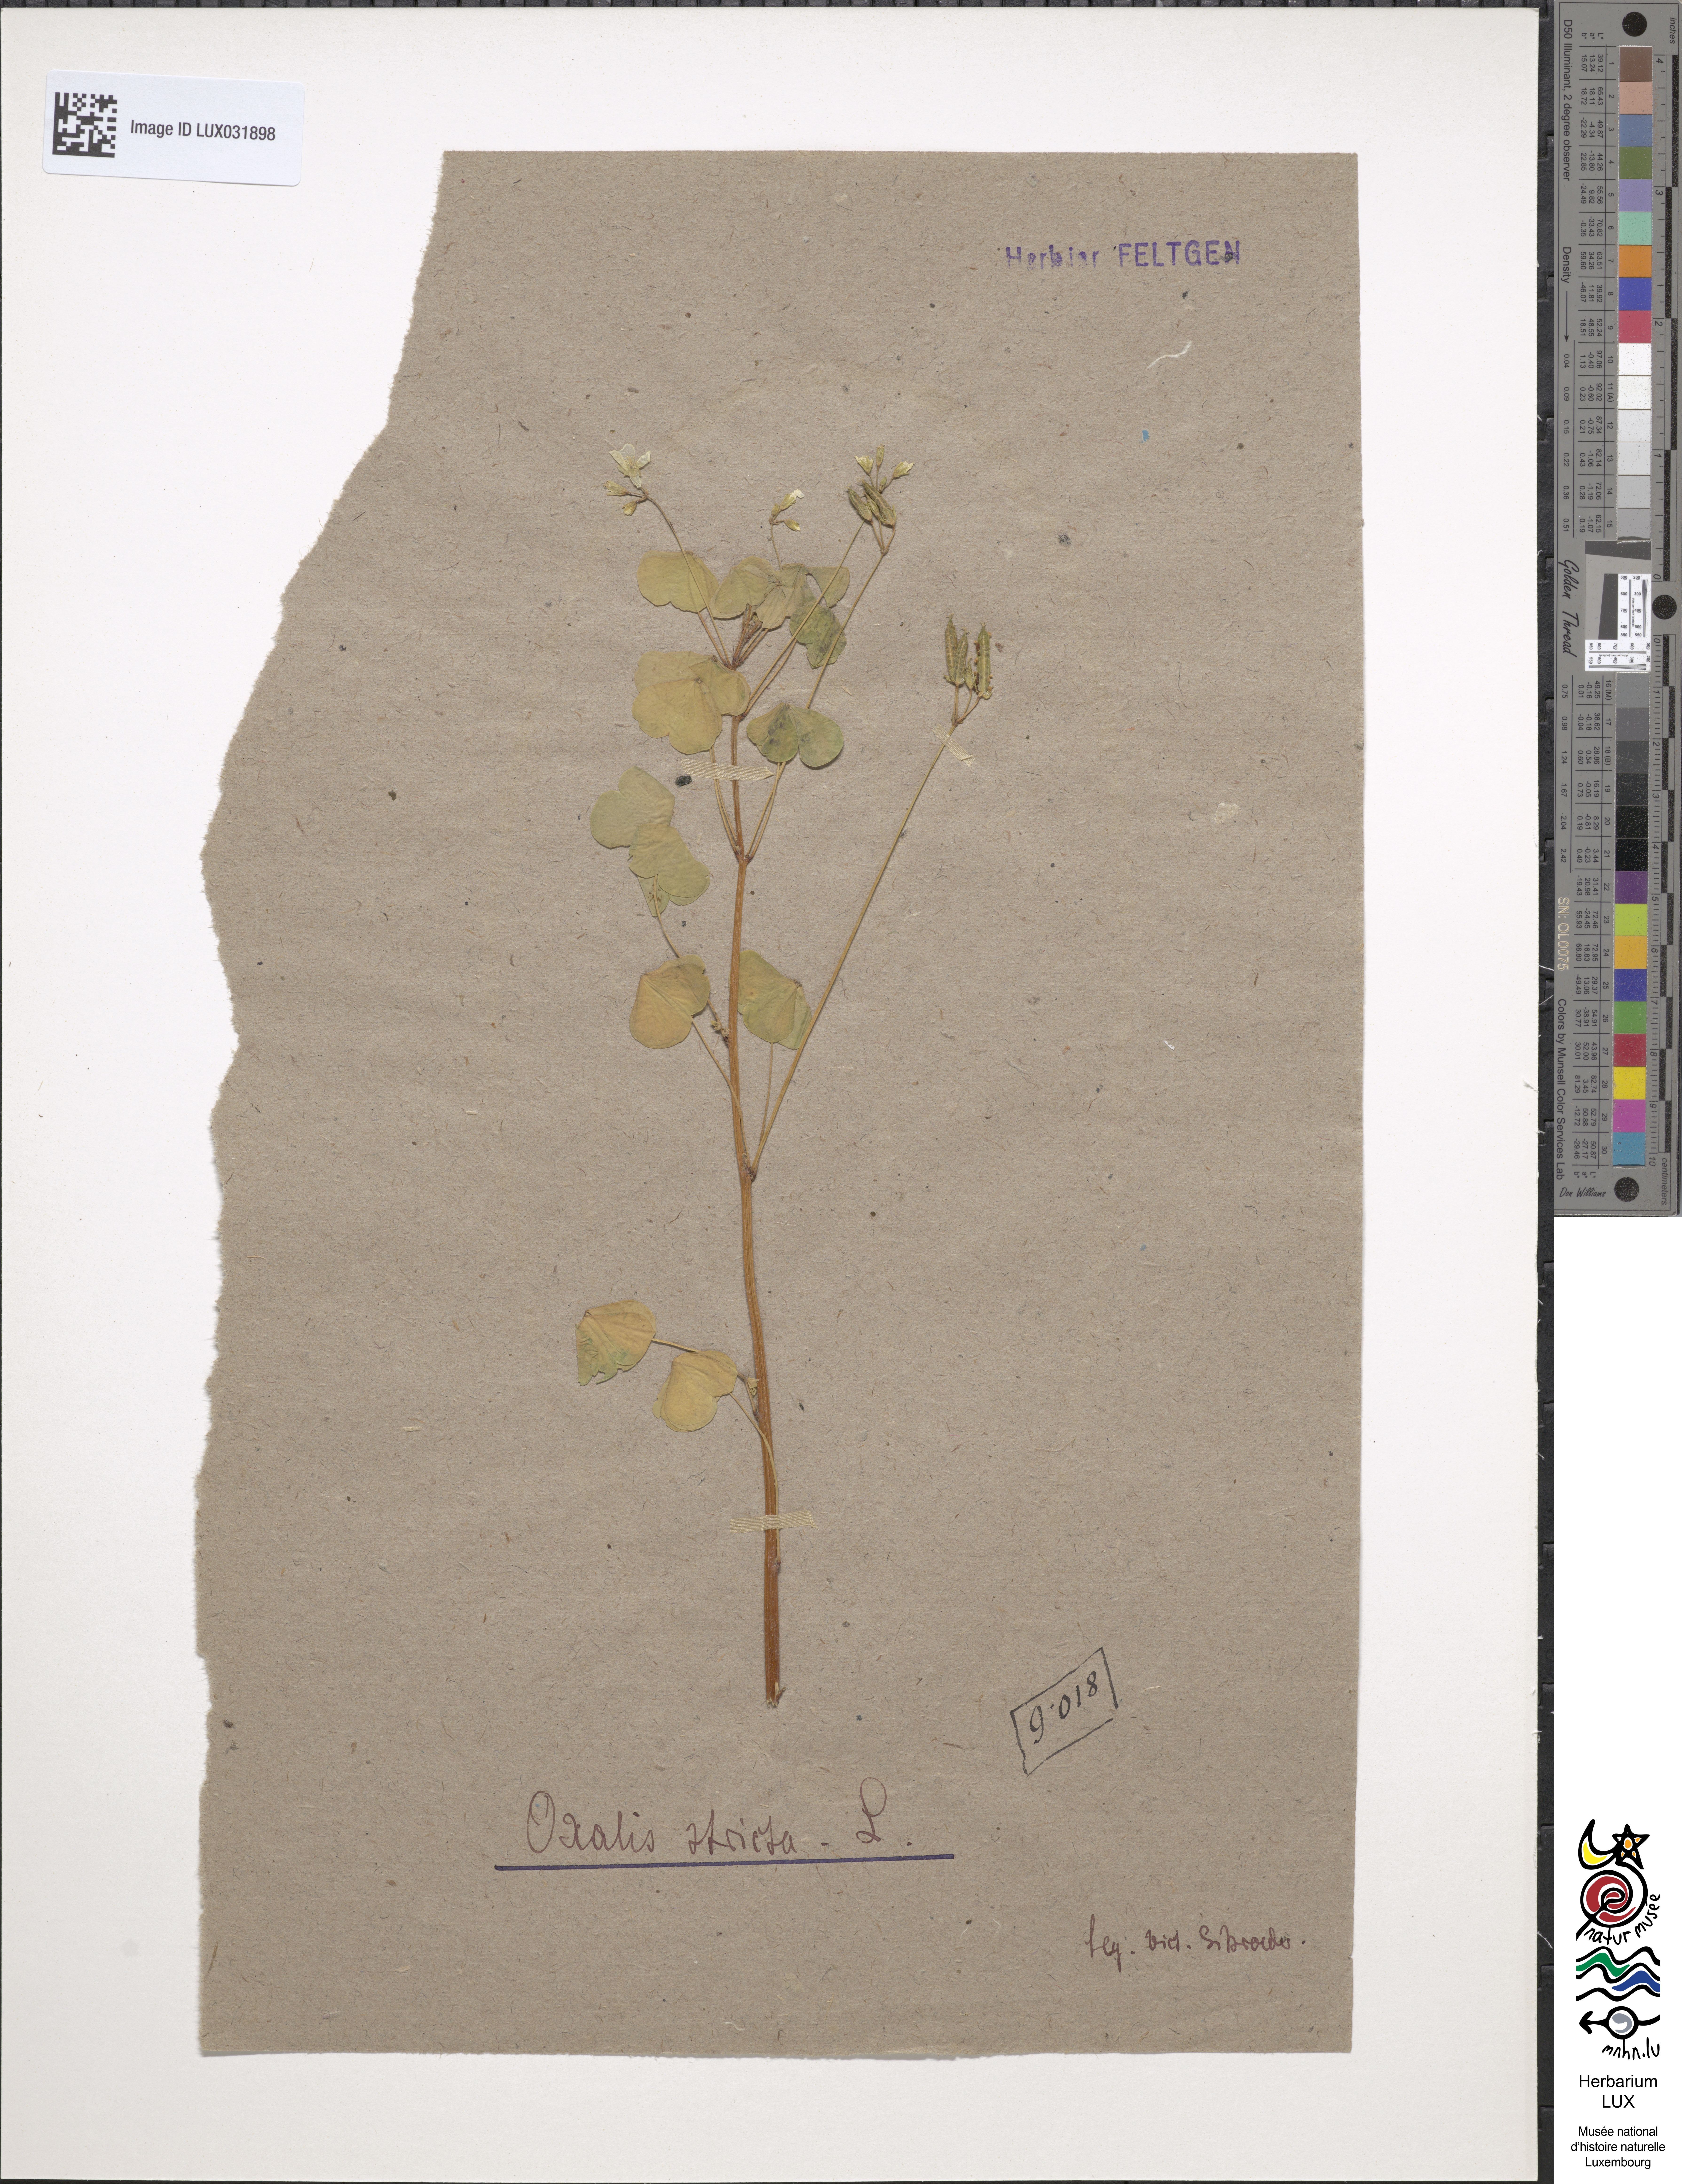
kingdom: Plantae
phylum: Tracheophyta
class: Magnoliopsida
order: Oxalidales
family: Oxalidaceae
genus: Oxalis
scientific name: Oxalis stricta
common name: Upright yellow-sorrel
